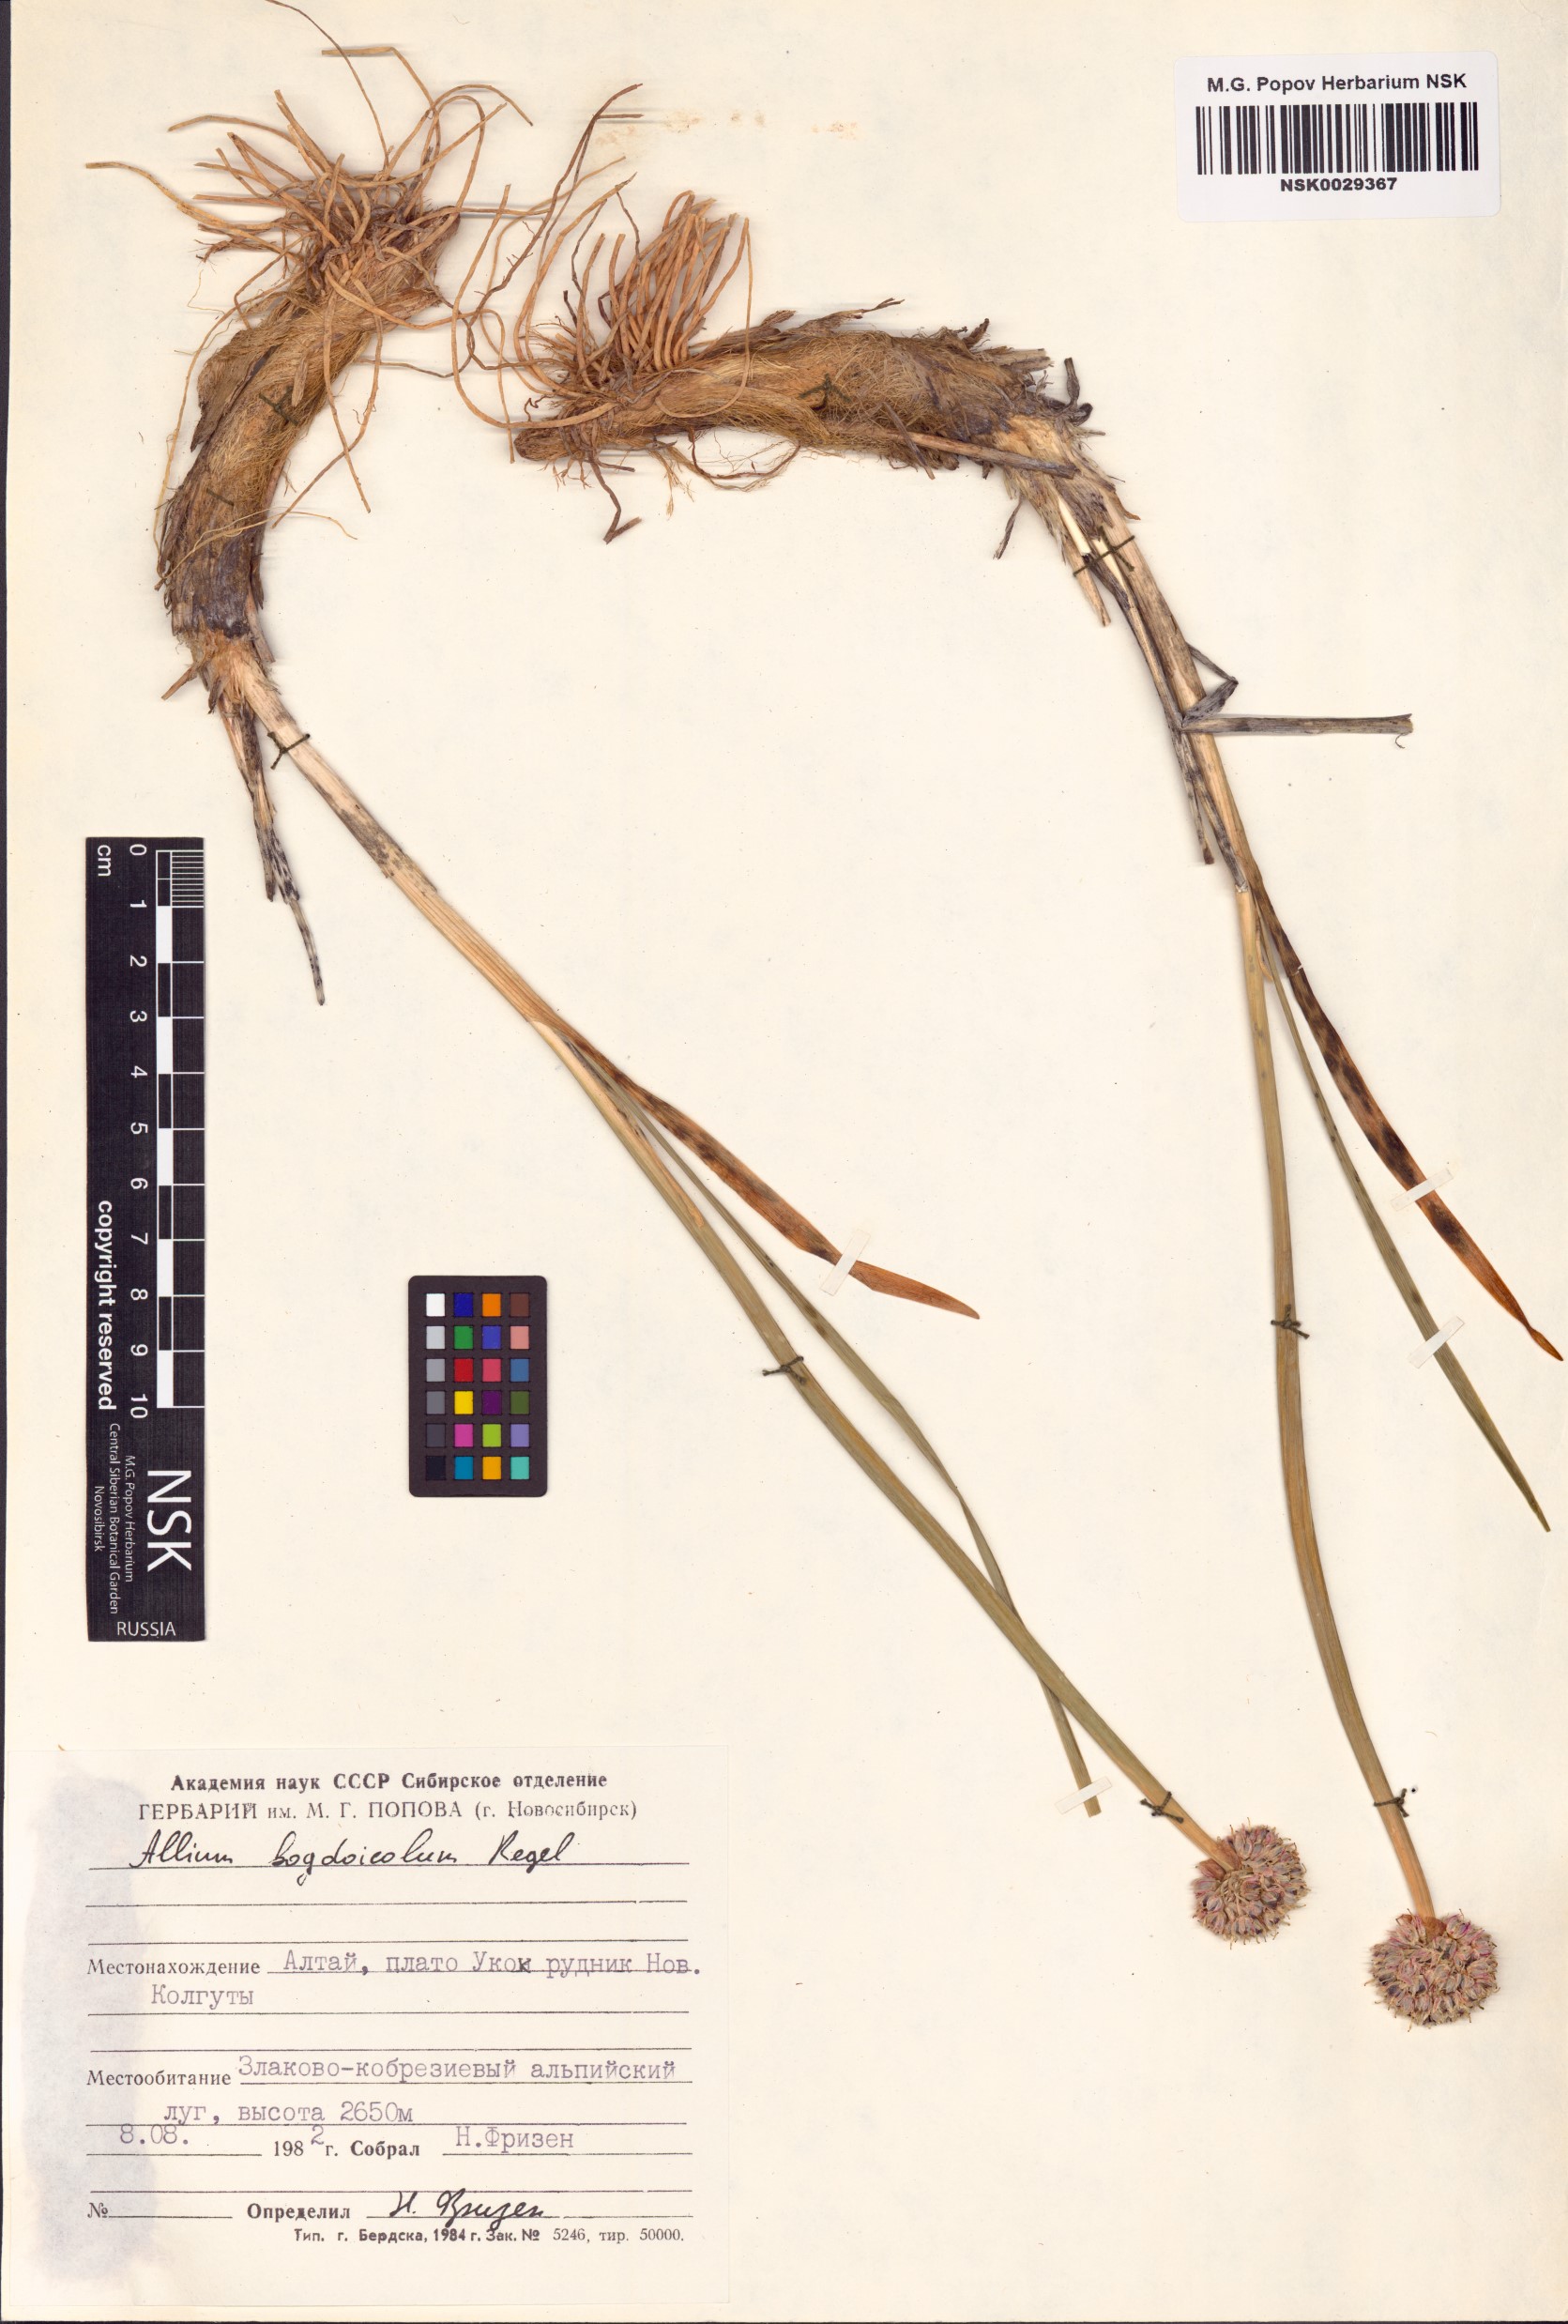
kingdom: Plantae
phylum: Tracheophyta
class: Liliopsida
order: Asparagales
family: Amaryllidaceae
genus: Allium
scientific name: Allium schrenkii
